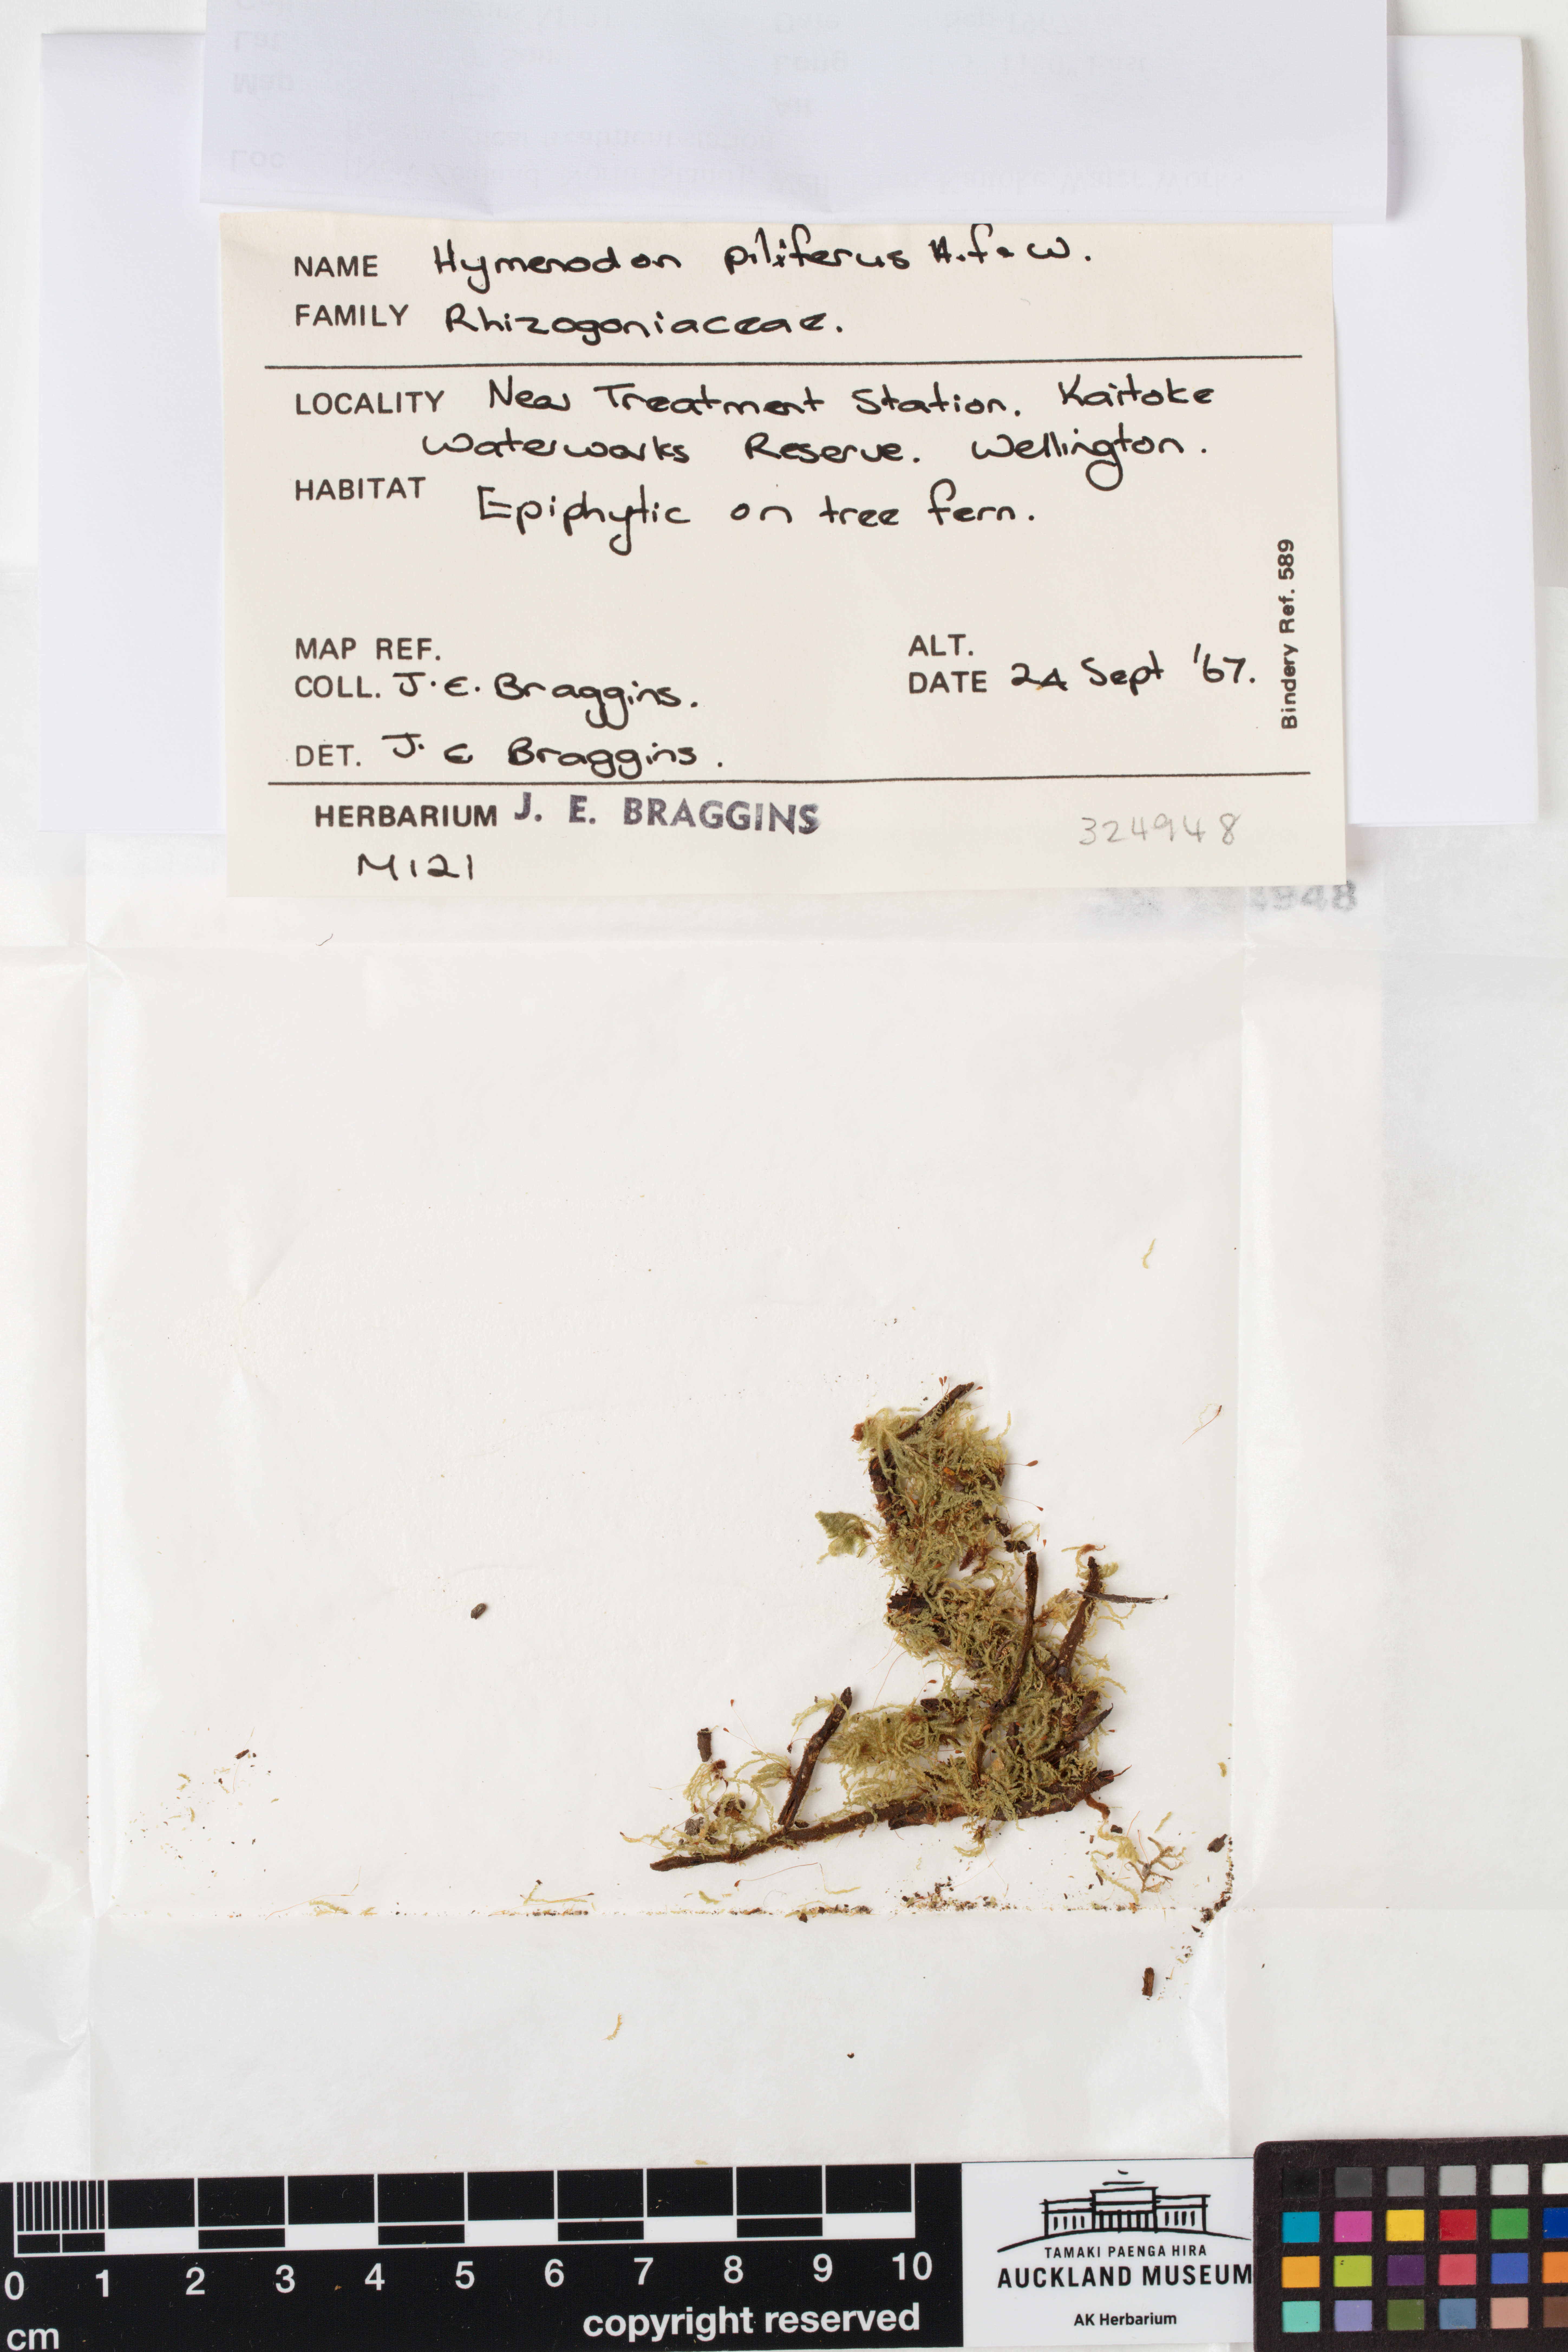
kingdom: Plantae
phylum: Bryophyta
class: Bryopsida
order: Orthodontiales
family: Orthodontiaceae
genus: Hymenodon
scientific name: Hymenodon pilifer
